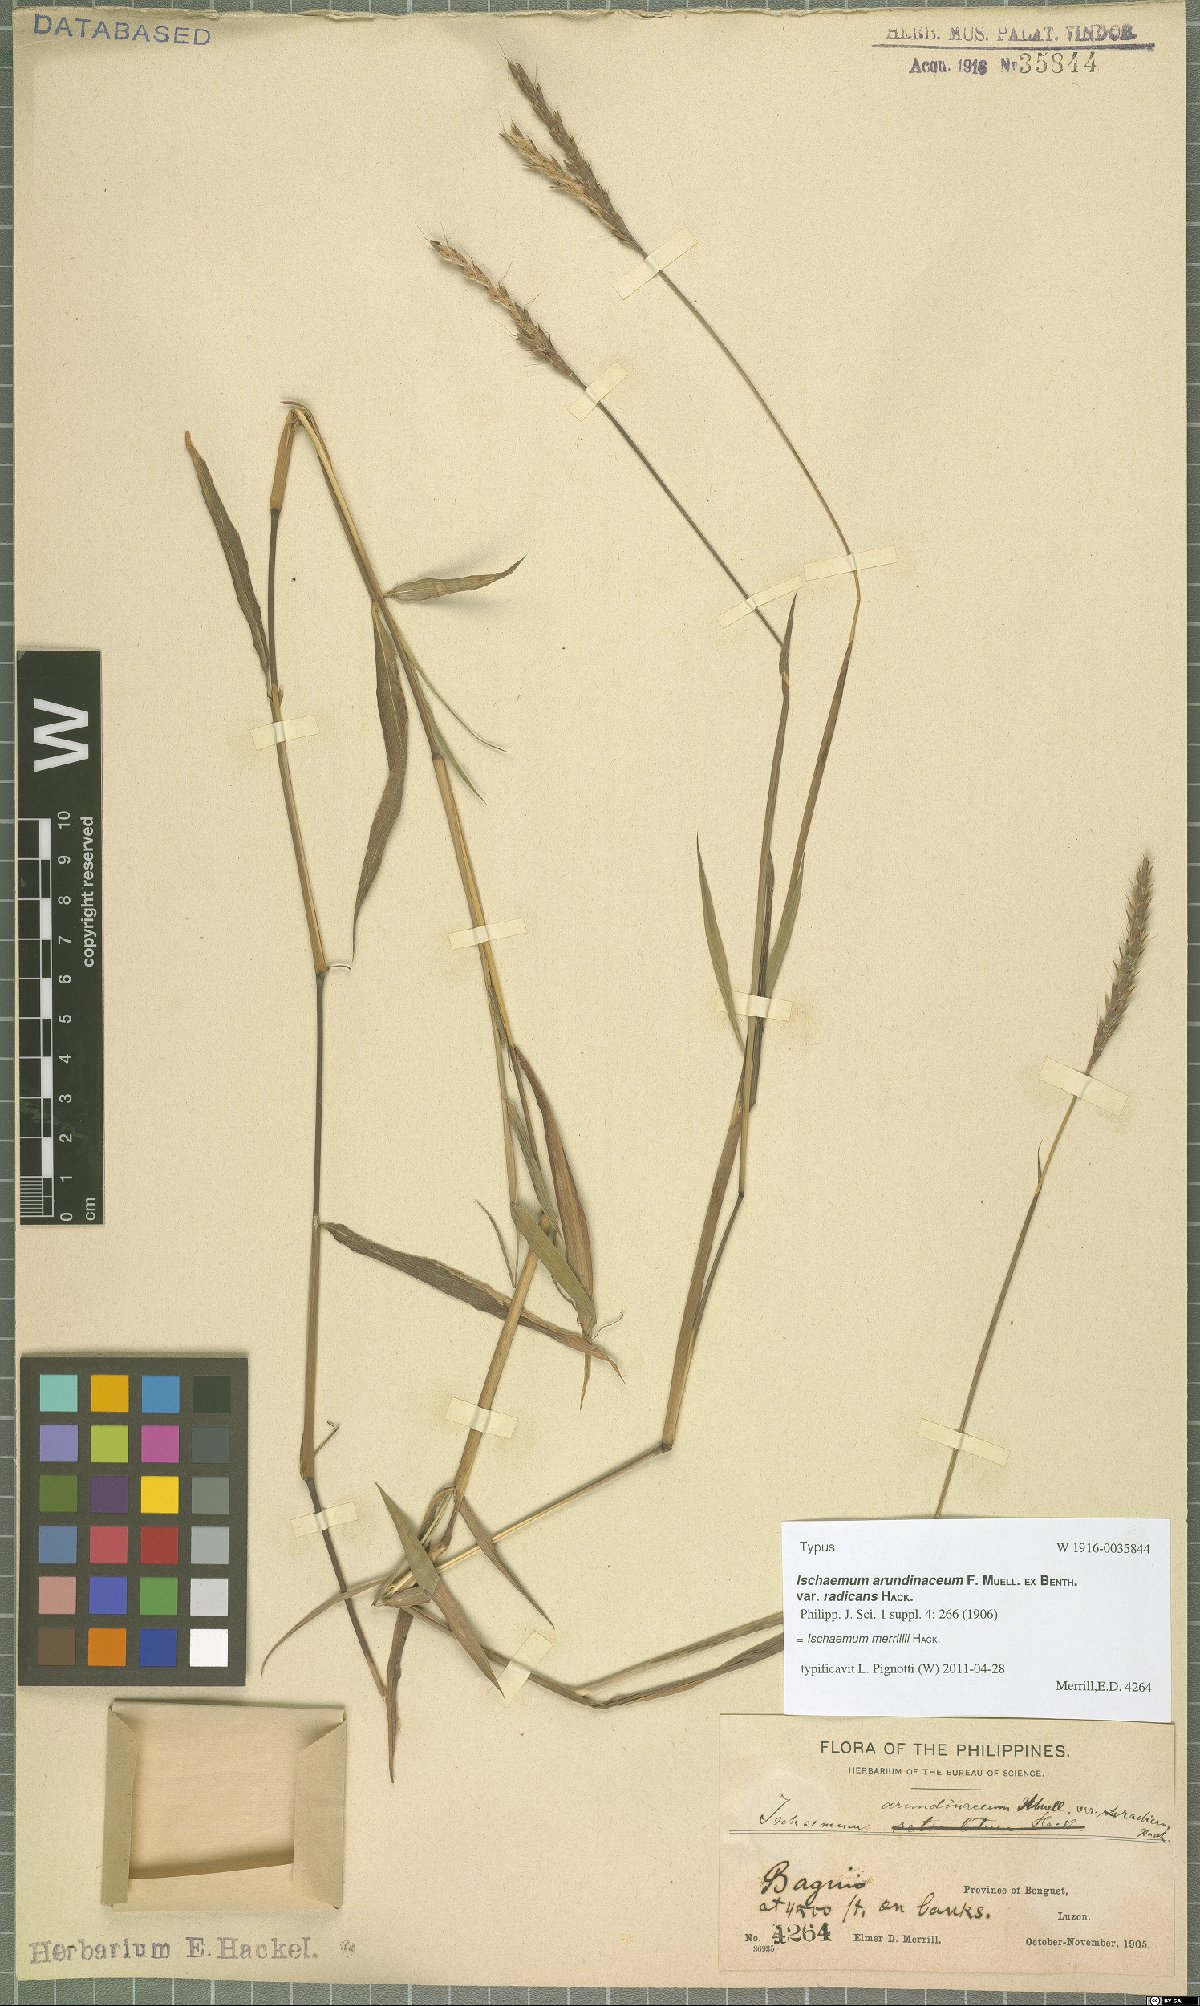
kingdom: Plantae
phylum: Tracheophyta
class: Liliopsida
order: Poales
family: Poaceae
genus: Ischaemum
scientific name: Ischaemum merrillii
